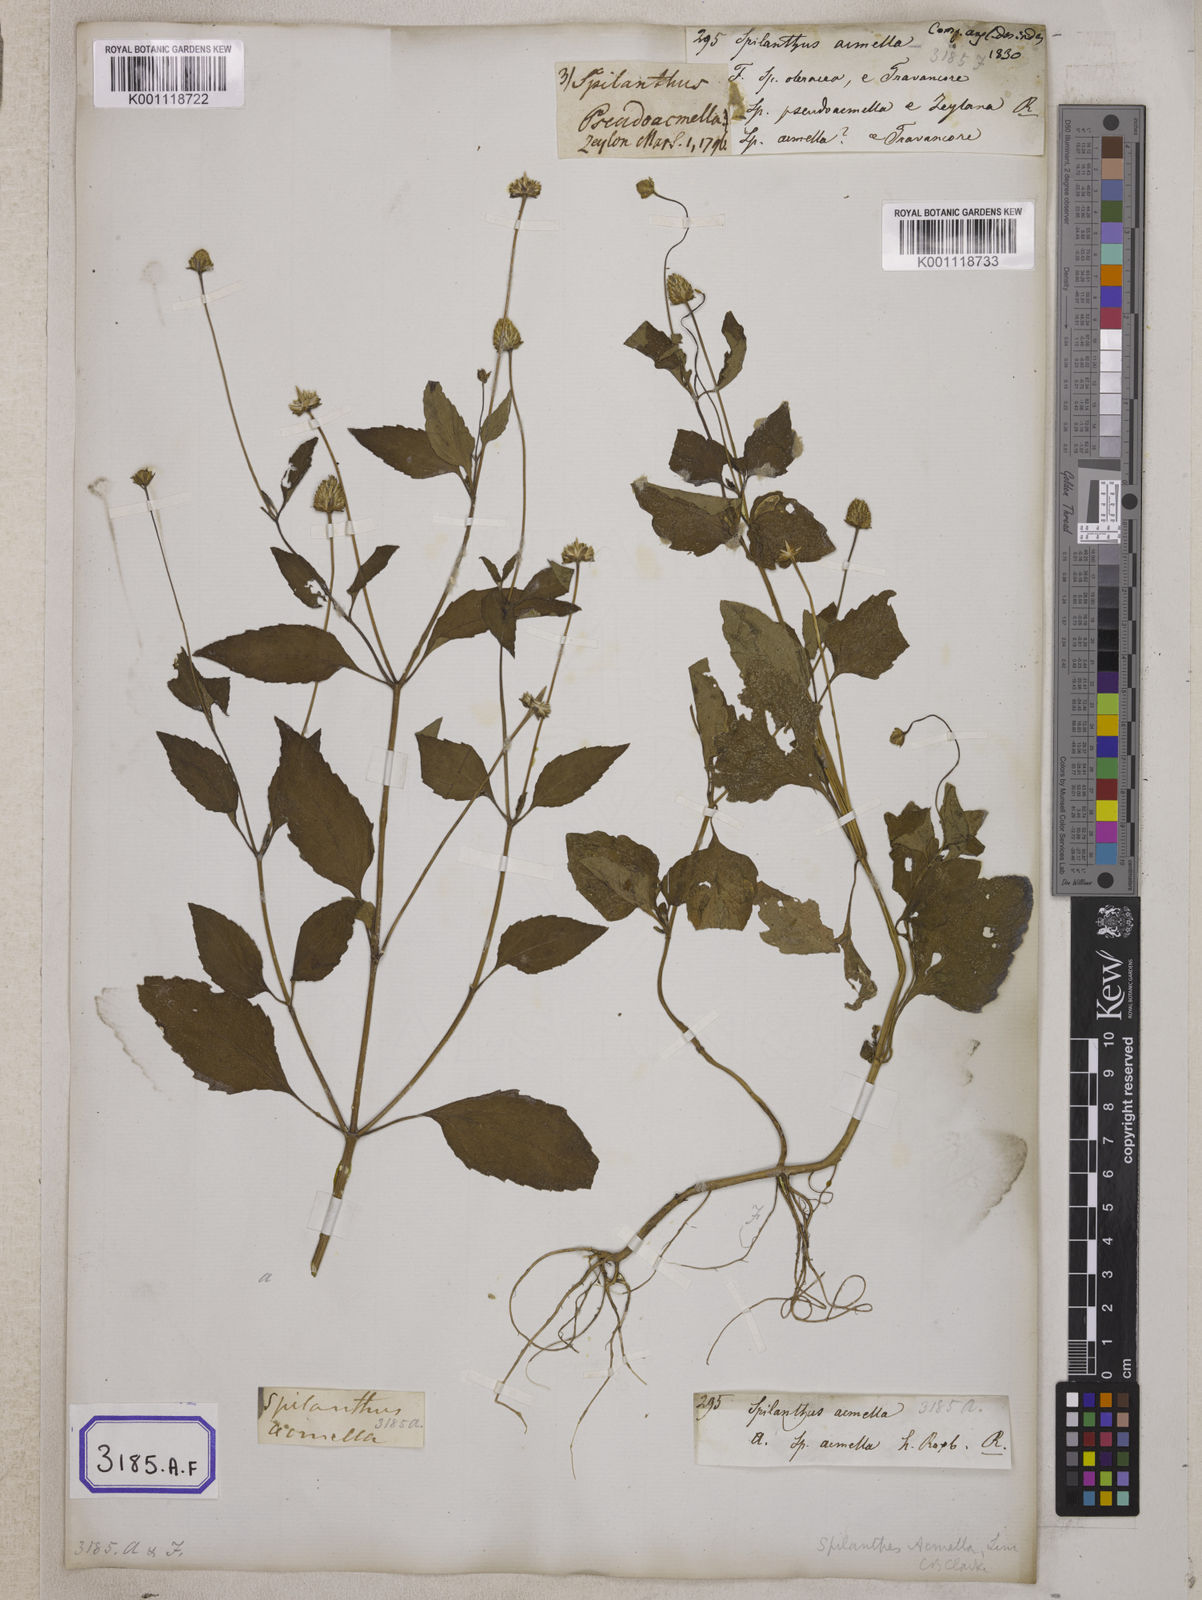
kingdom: Plantae
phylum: Tracheophyta
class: Magnoliopsida
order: Asterales
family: Asteraceae
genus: Blainvillea
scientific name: Blainvillea acmella
